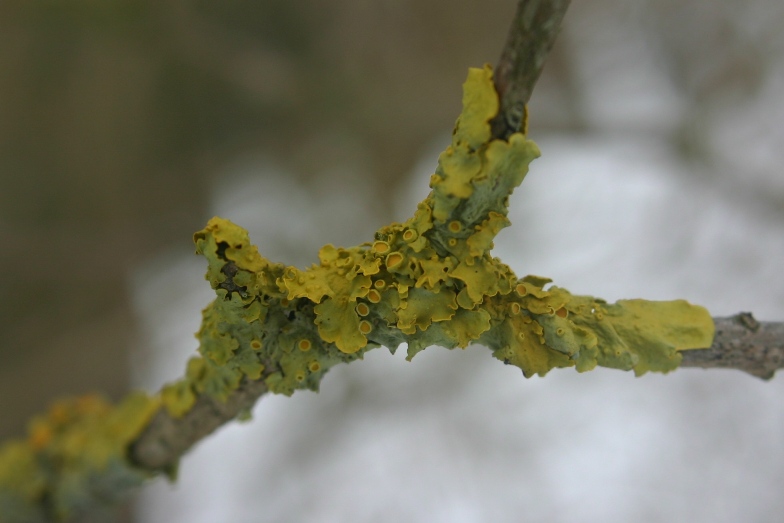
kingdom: Fungi
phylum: Ascomycota
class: Lecanoromycetes
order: Teloschistales
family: Teloschistaceae
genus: Xanthoria
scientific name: Xanthoria parietina
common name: almindelig væggelav
